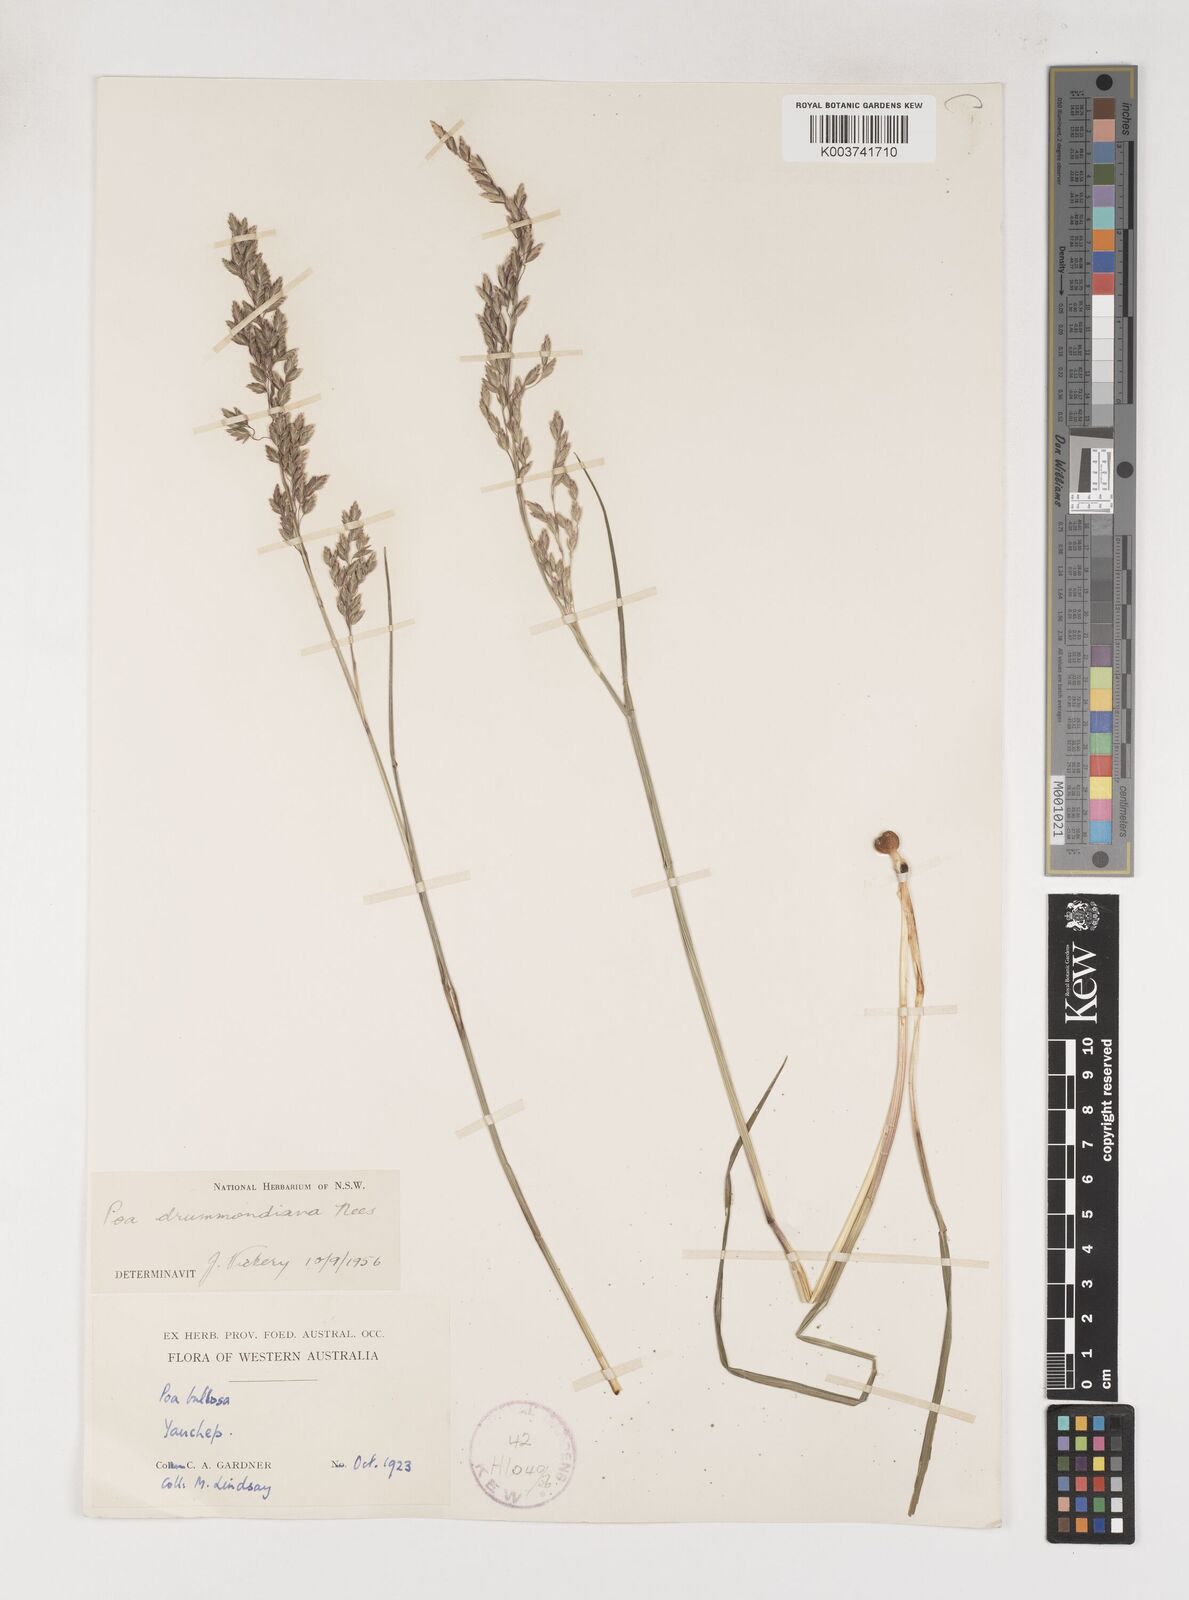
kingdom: Plantae
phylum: Tracheophyta
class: Liliopsida
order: Poales
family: Poaceae
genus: Poa
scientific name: Poa drummondiana
